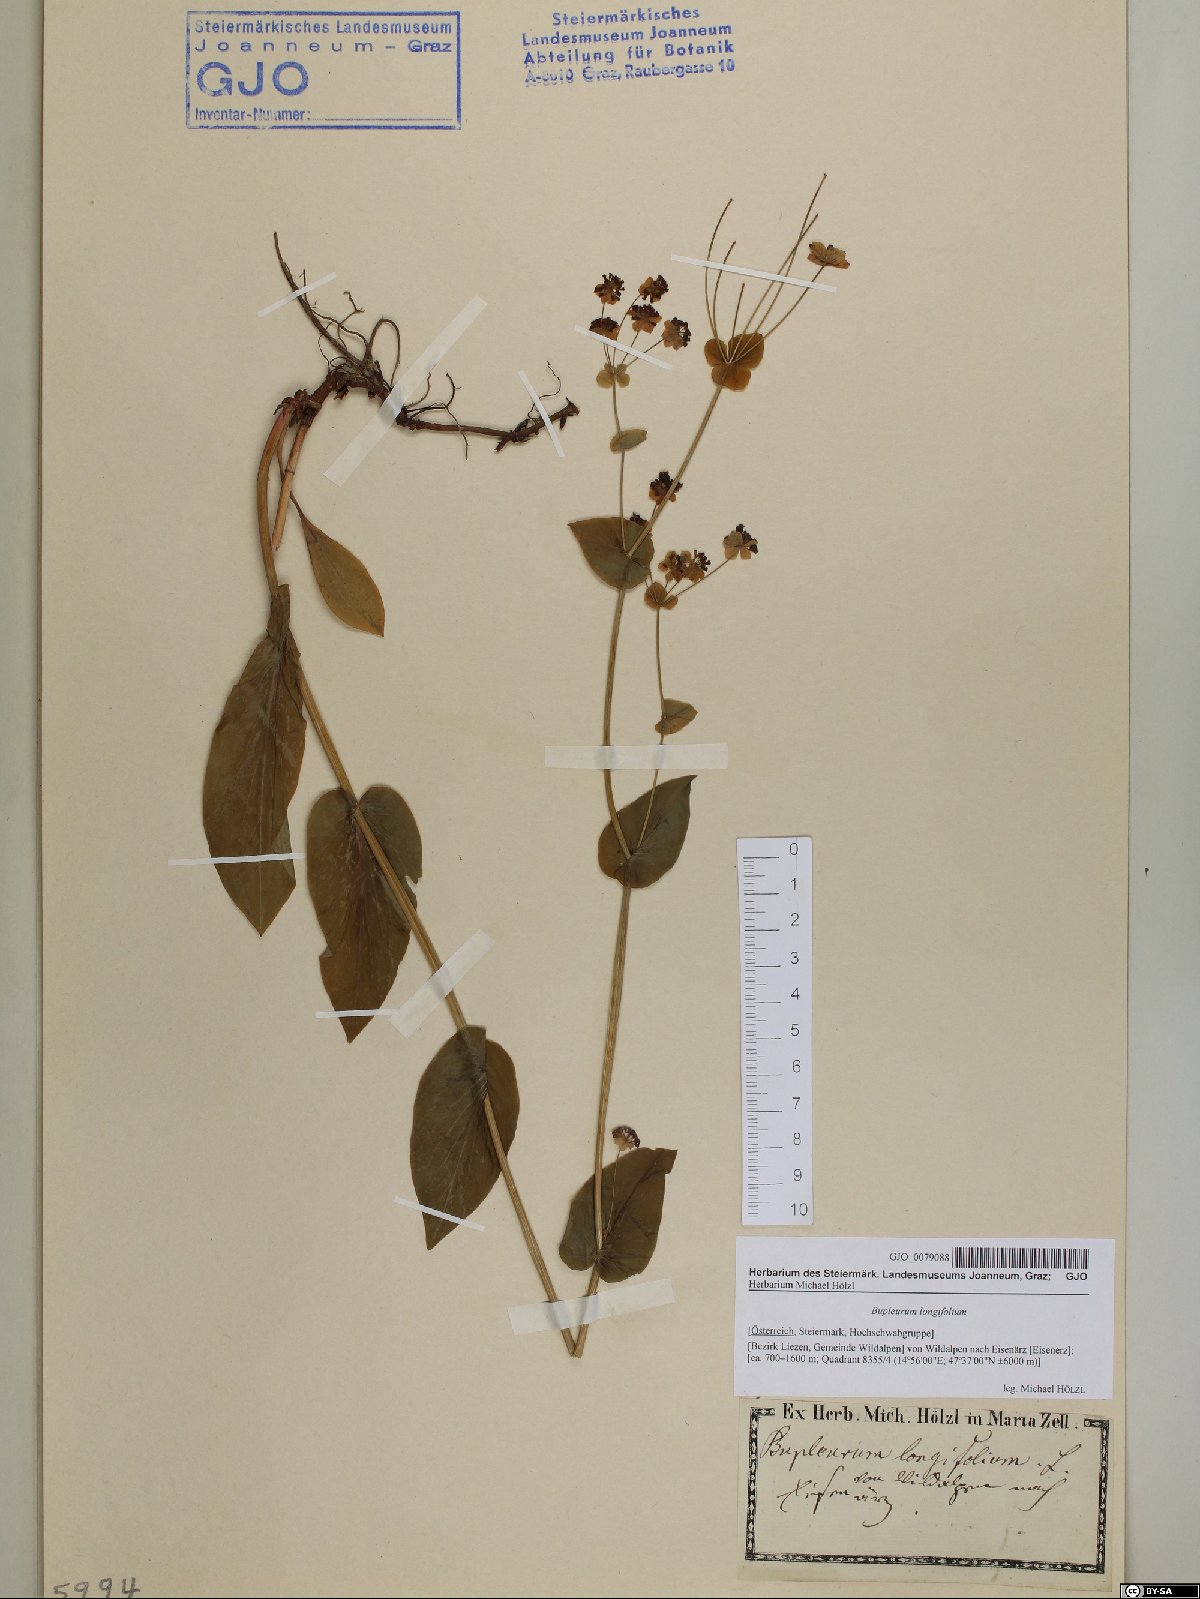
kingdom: Plantae
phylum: Tracheophyta
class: Magnoliopsida
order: Apiales
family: Apiaceae
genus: Bupleurum
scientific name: Bupleurum longifolium
